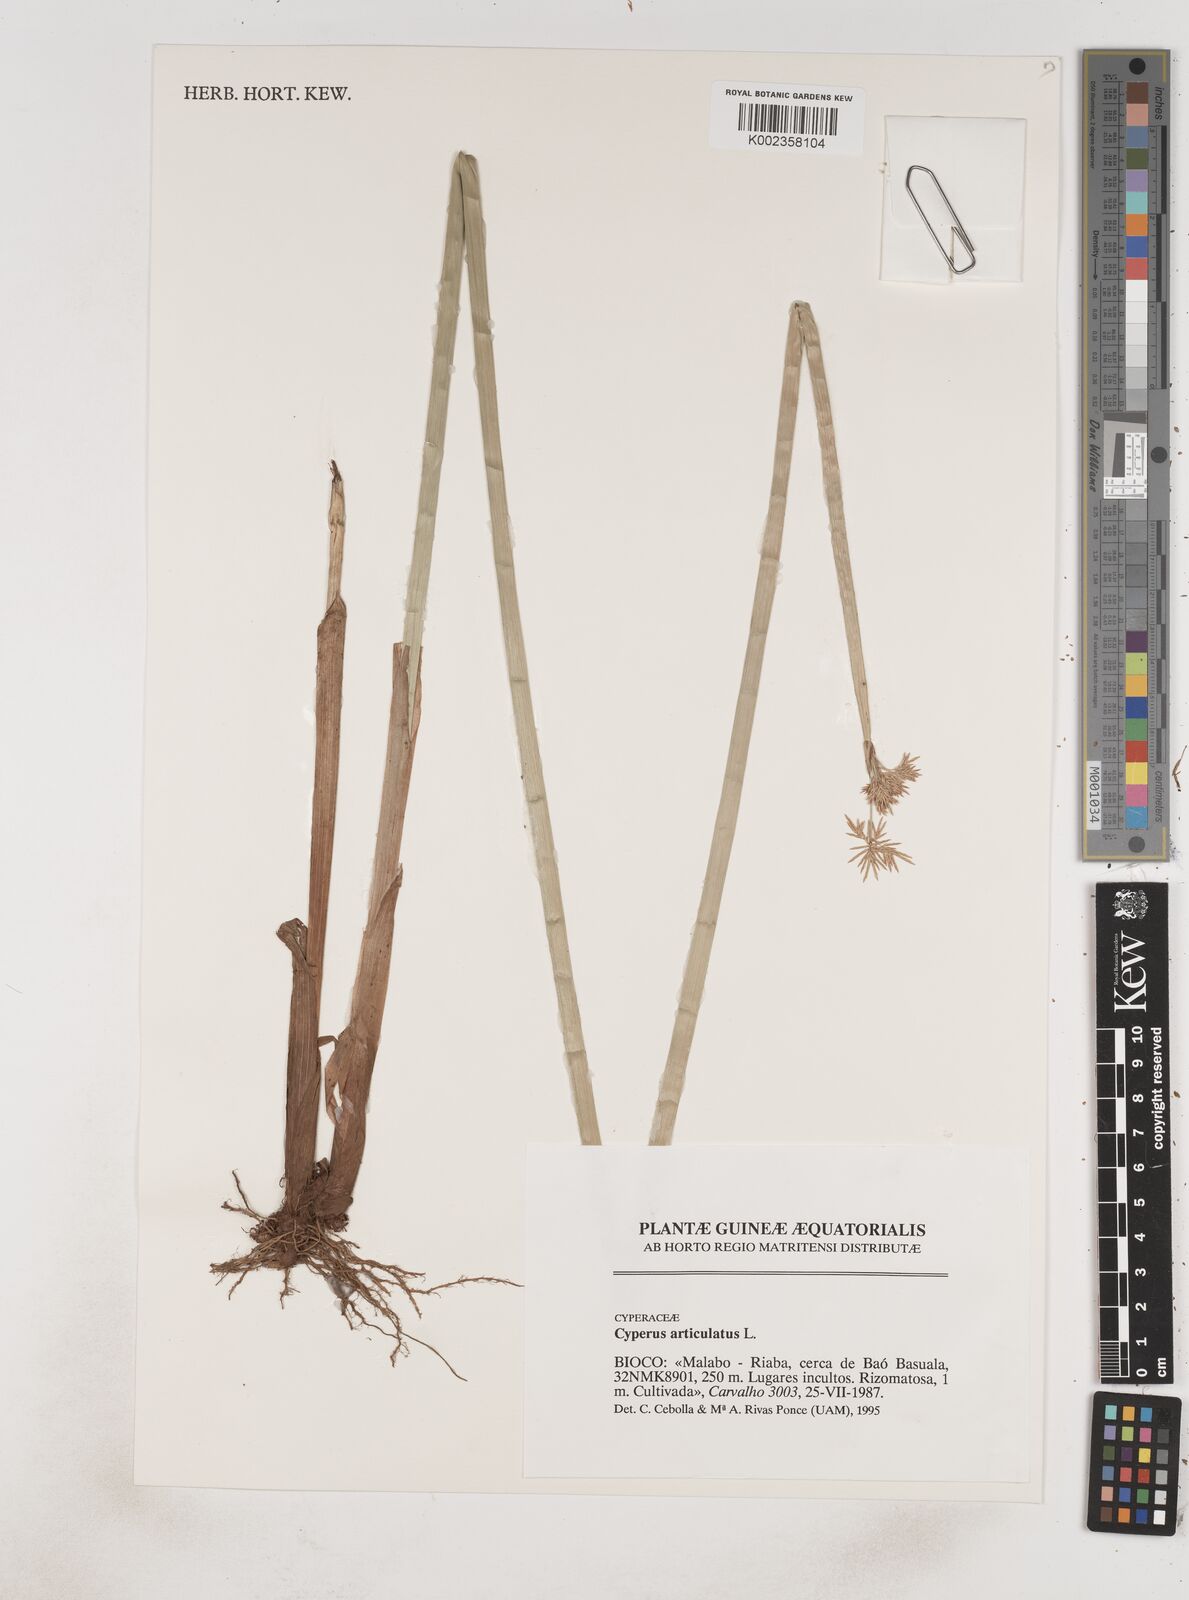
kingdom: Plantae
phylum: Tracheophyta
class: Liliopsida
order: Poales
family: Cyperaceae
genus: Cyperus
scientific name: Cyperus articulatus
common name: Jointed flatsedge
